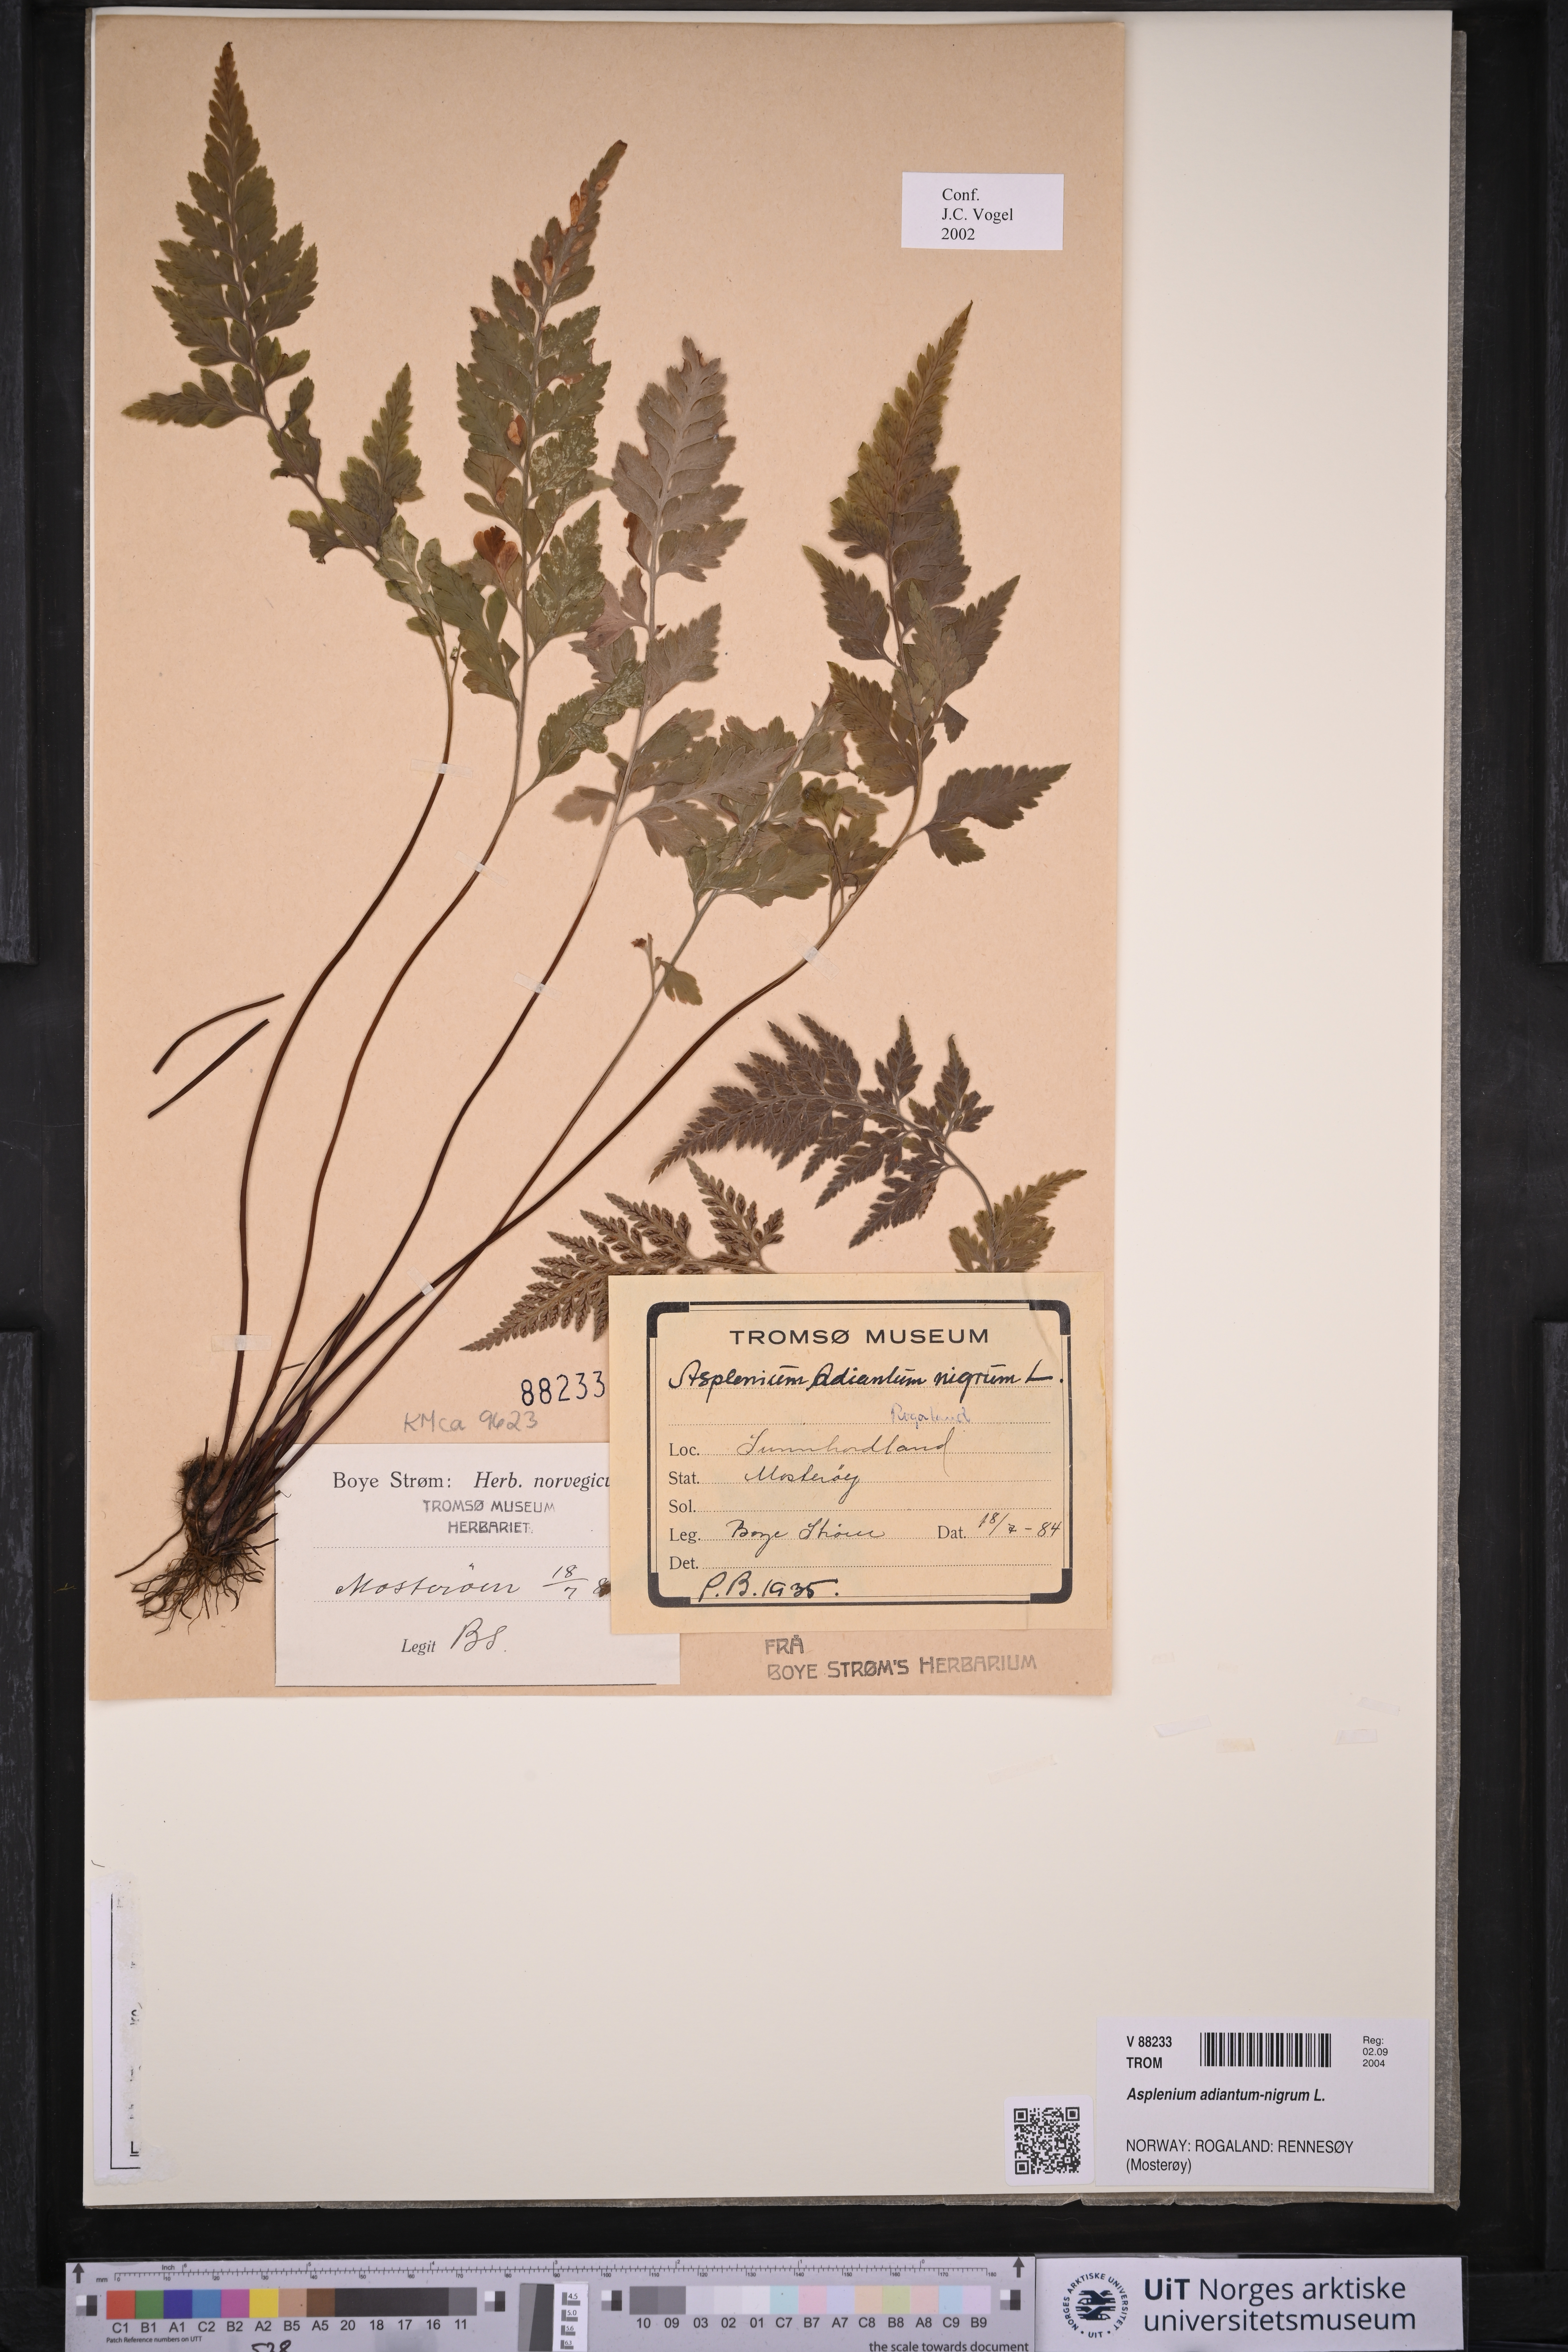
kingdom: Plantae
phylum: Tracheophyta
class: Polypodiopsida
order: Polypodiales
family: Aspleniaceae
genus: Asplenium
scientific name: Asplenium adiantum-nigrum
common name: Black spleenwort
